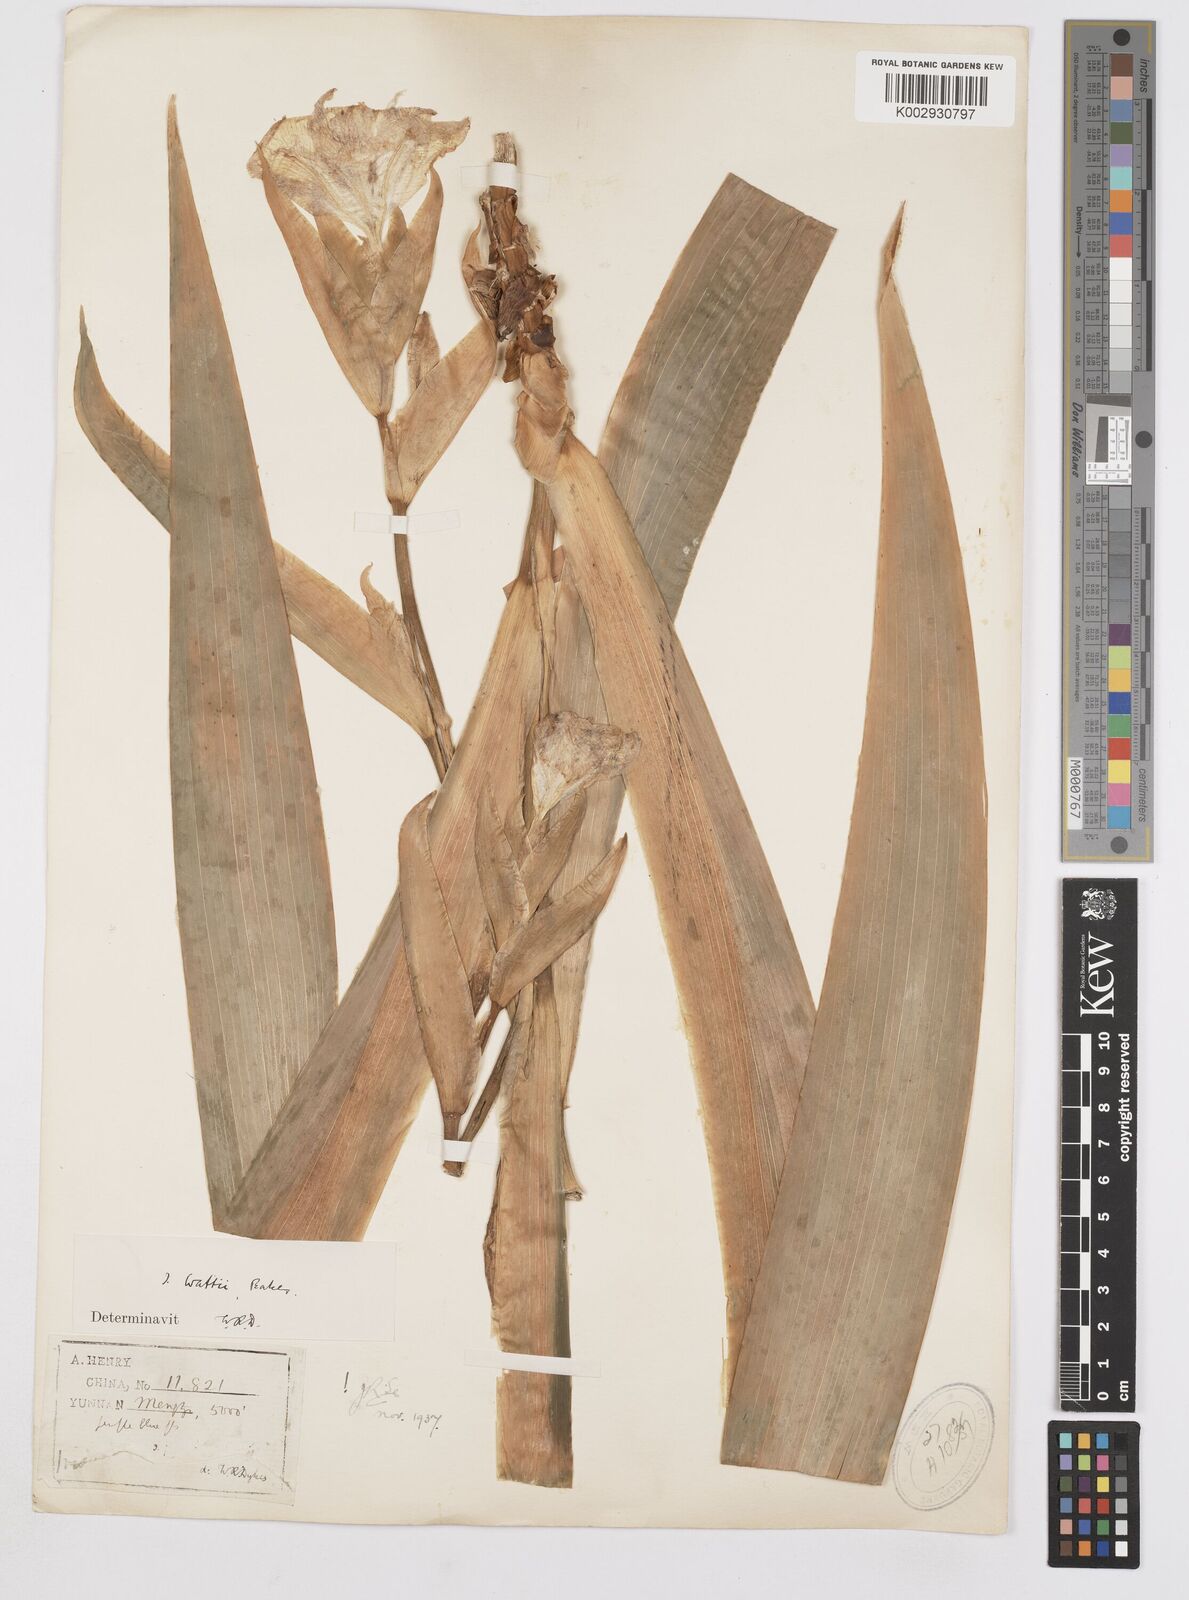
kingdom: Plantae
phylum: Tracheophyta
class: Liliopsida
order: Asparagales
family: Iridaceae
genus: Iris
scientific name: Iris wattii
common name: Fan-shape iris
